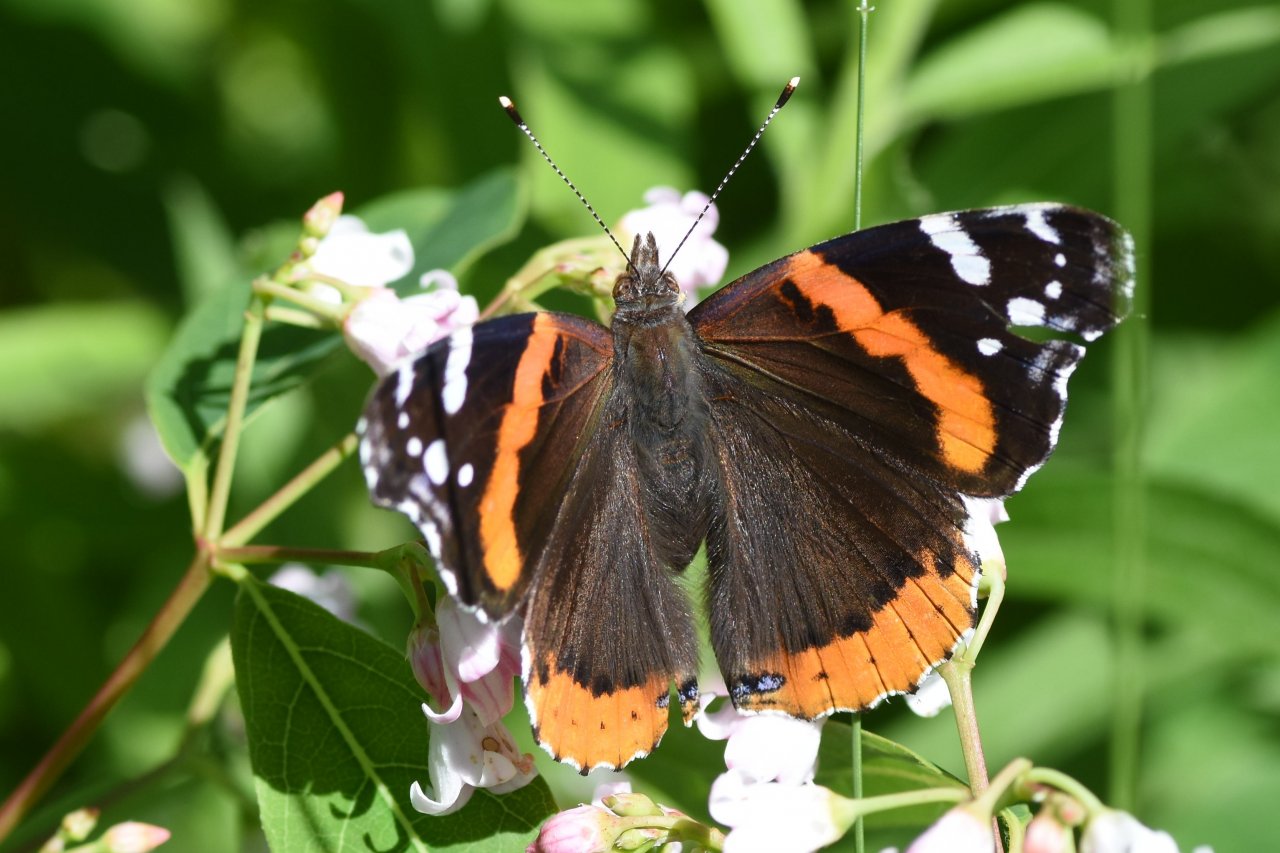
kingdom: Animalia
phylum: Arthropoda
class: Insecta
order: Lepidoptera
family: Nymphalidae
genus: Vanessa
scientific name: Vanessa atalanta
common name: Red Admiral
